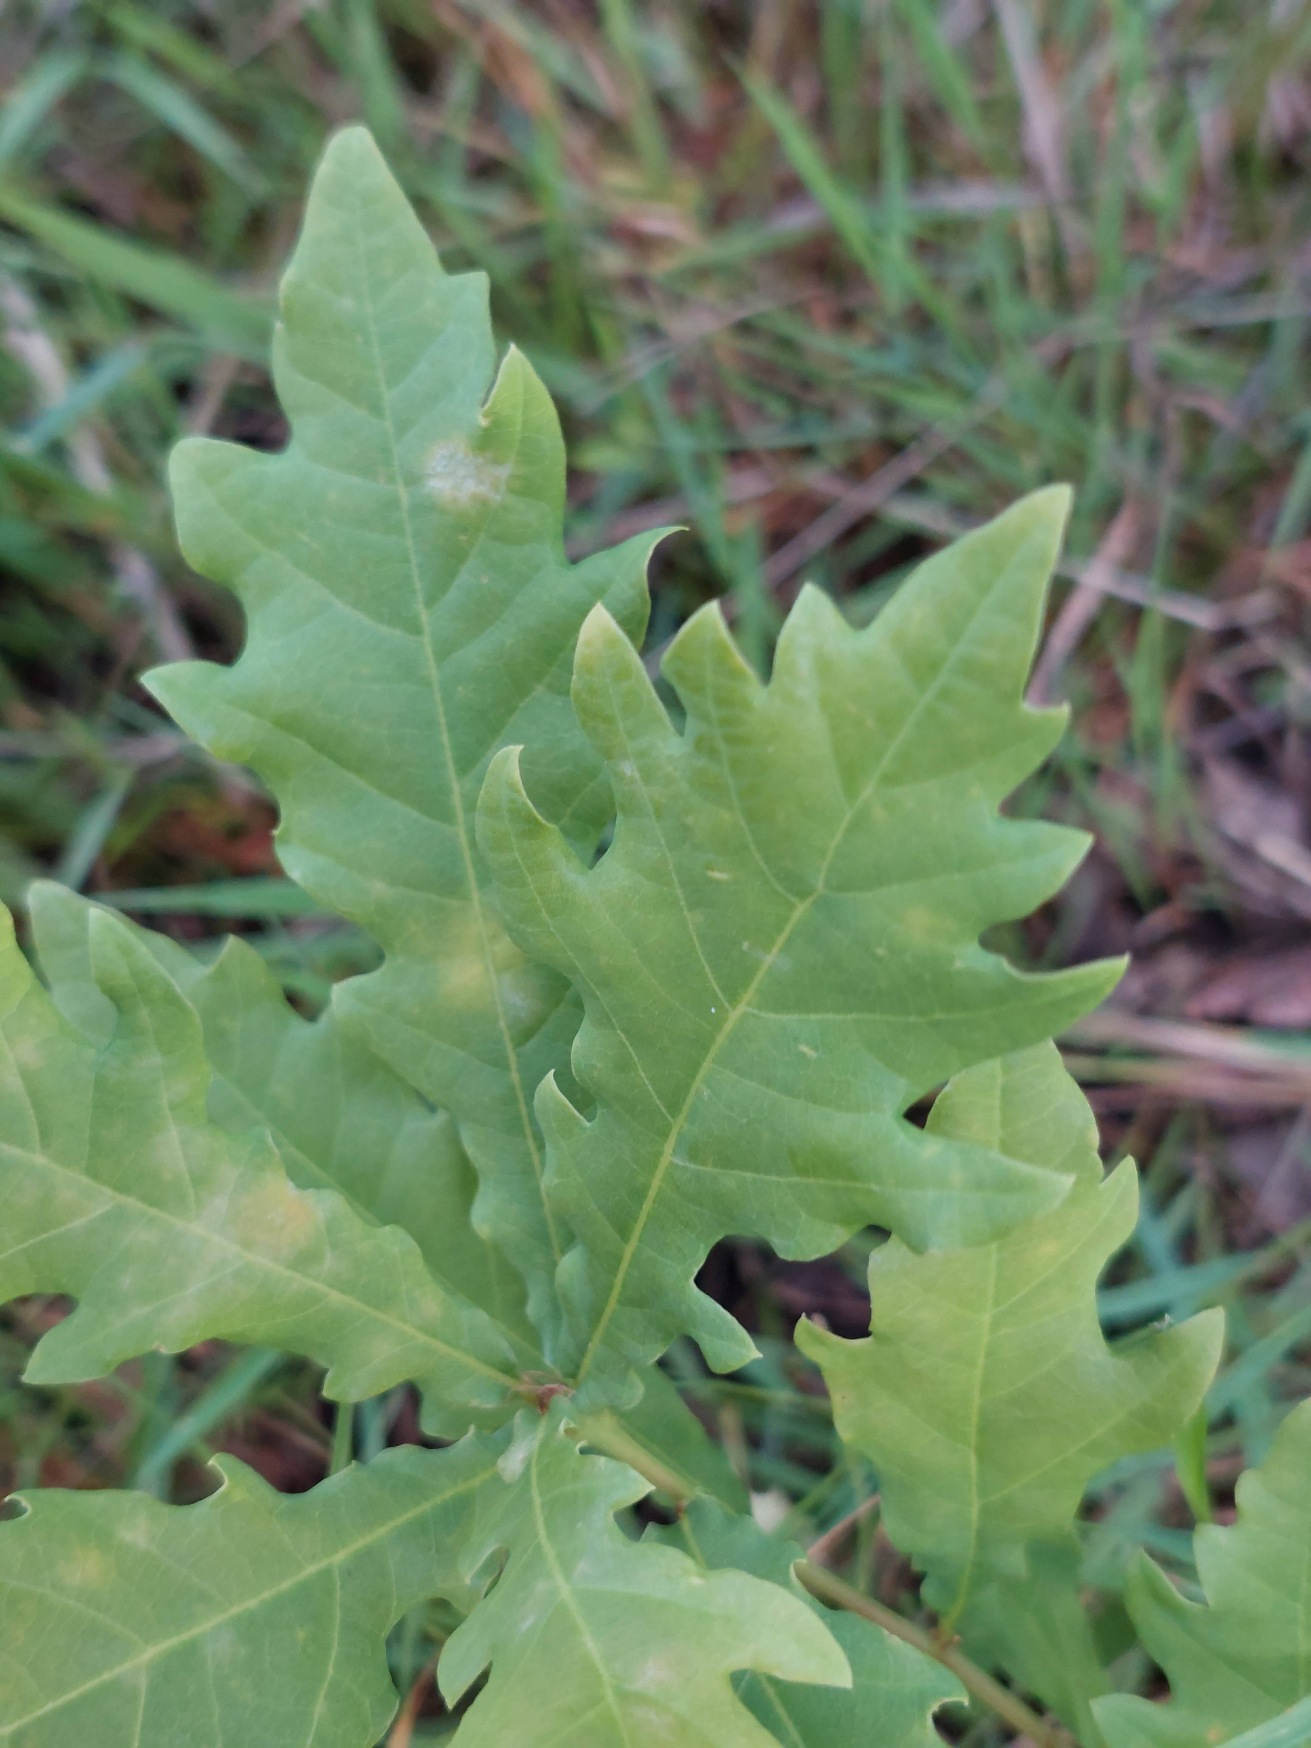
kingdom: Plantae
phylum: Tracheophyta
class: Magnoliopsida
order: Fagales
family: Fagaceae
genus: Quercus
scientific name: Quercus robur
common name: Stilk-eg/almindelig eg
